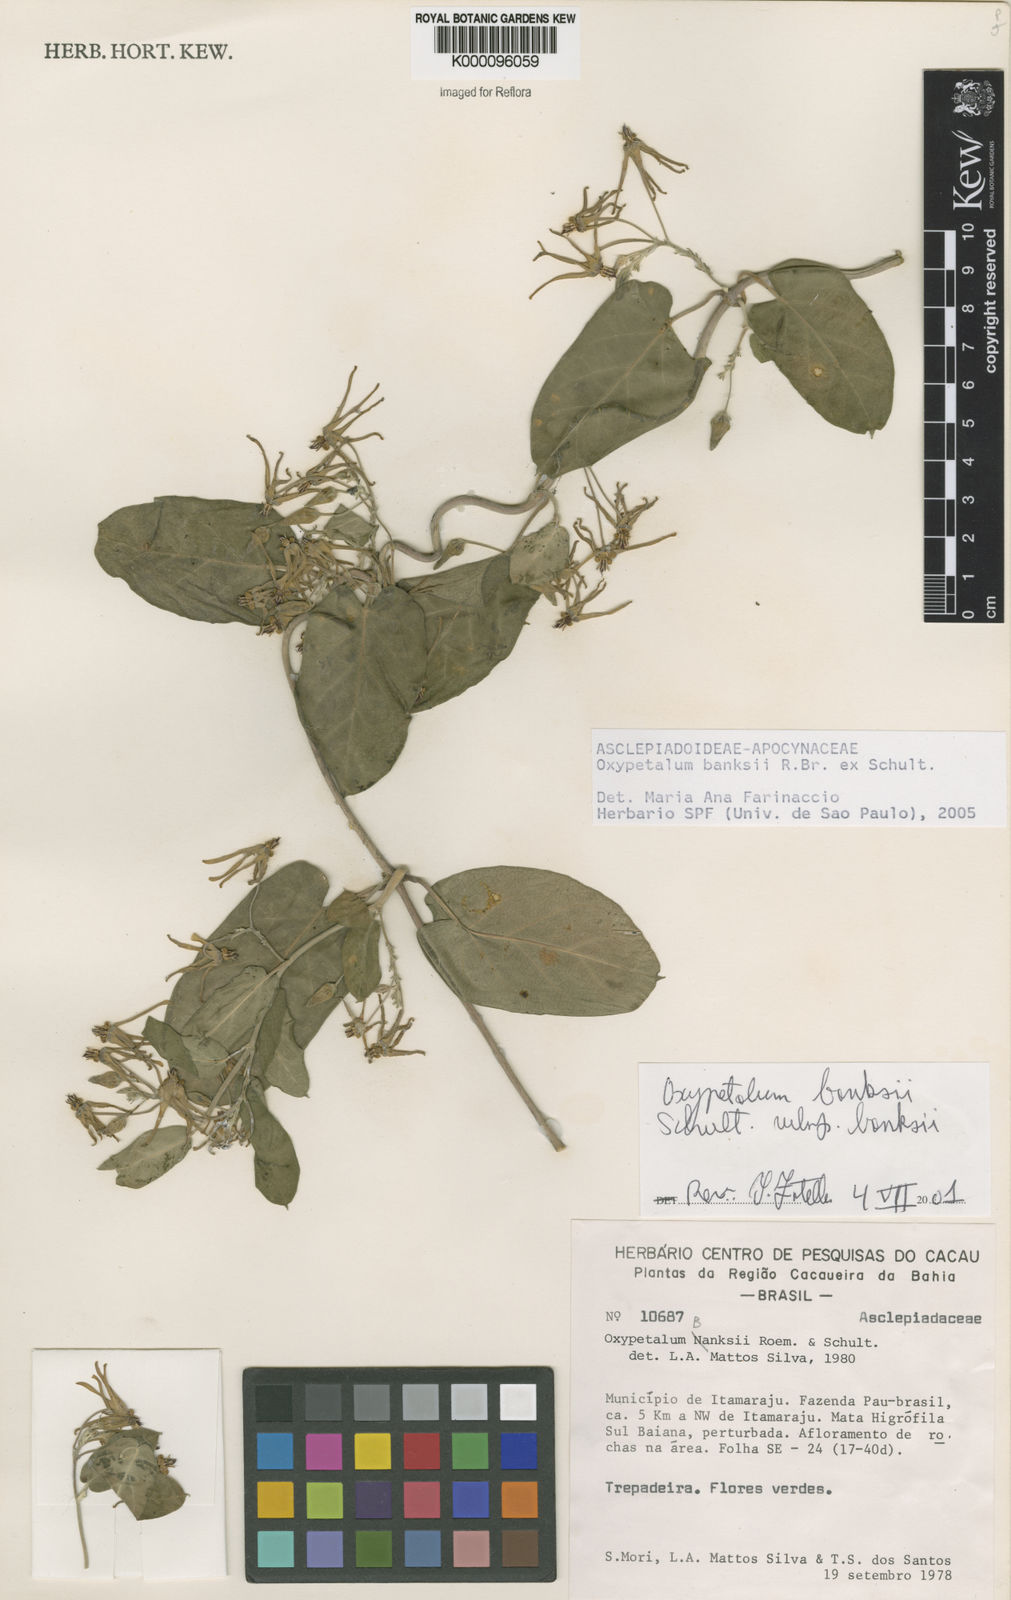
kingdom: Plantae
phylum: Tracheophyta
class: Magnoliopsida
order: Gentianales
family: Apocynaceae
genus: Oxypetalum
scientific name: Oxypetalum banksii
